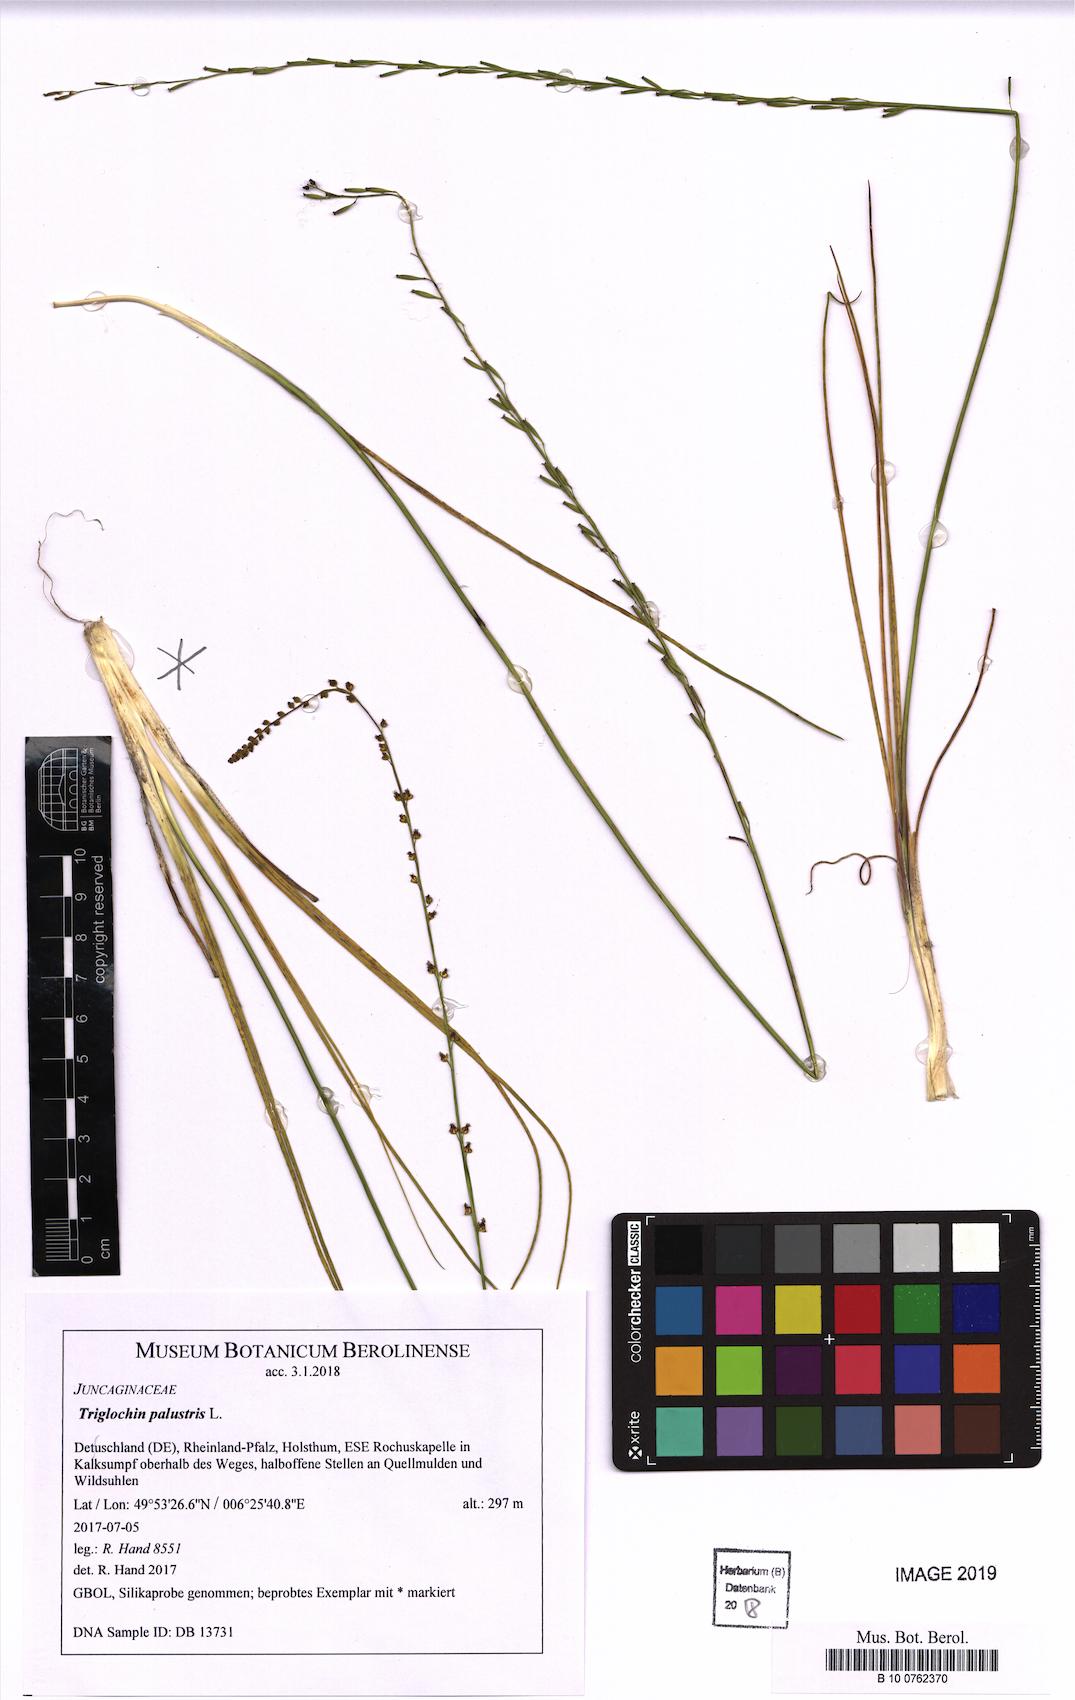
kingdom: Plantae
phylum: Tracheophyta
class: Liliopsida
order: Alismatales
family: Juncaginaceae
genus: Triglochin
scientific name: Triglochin palustris
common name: Marsh arrowgrass
